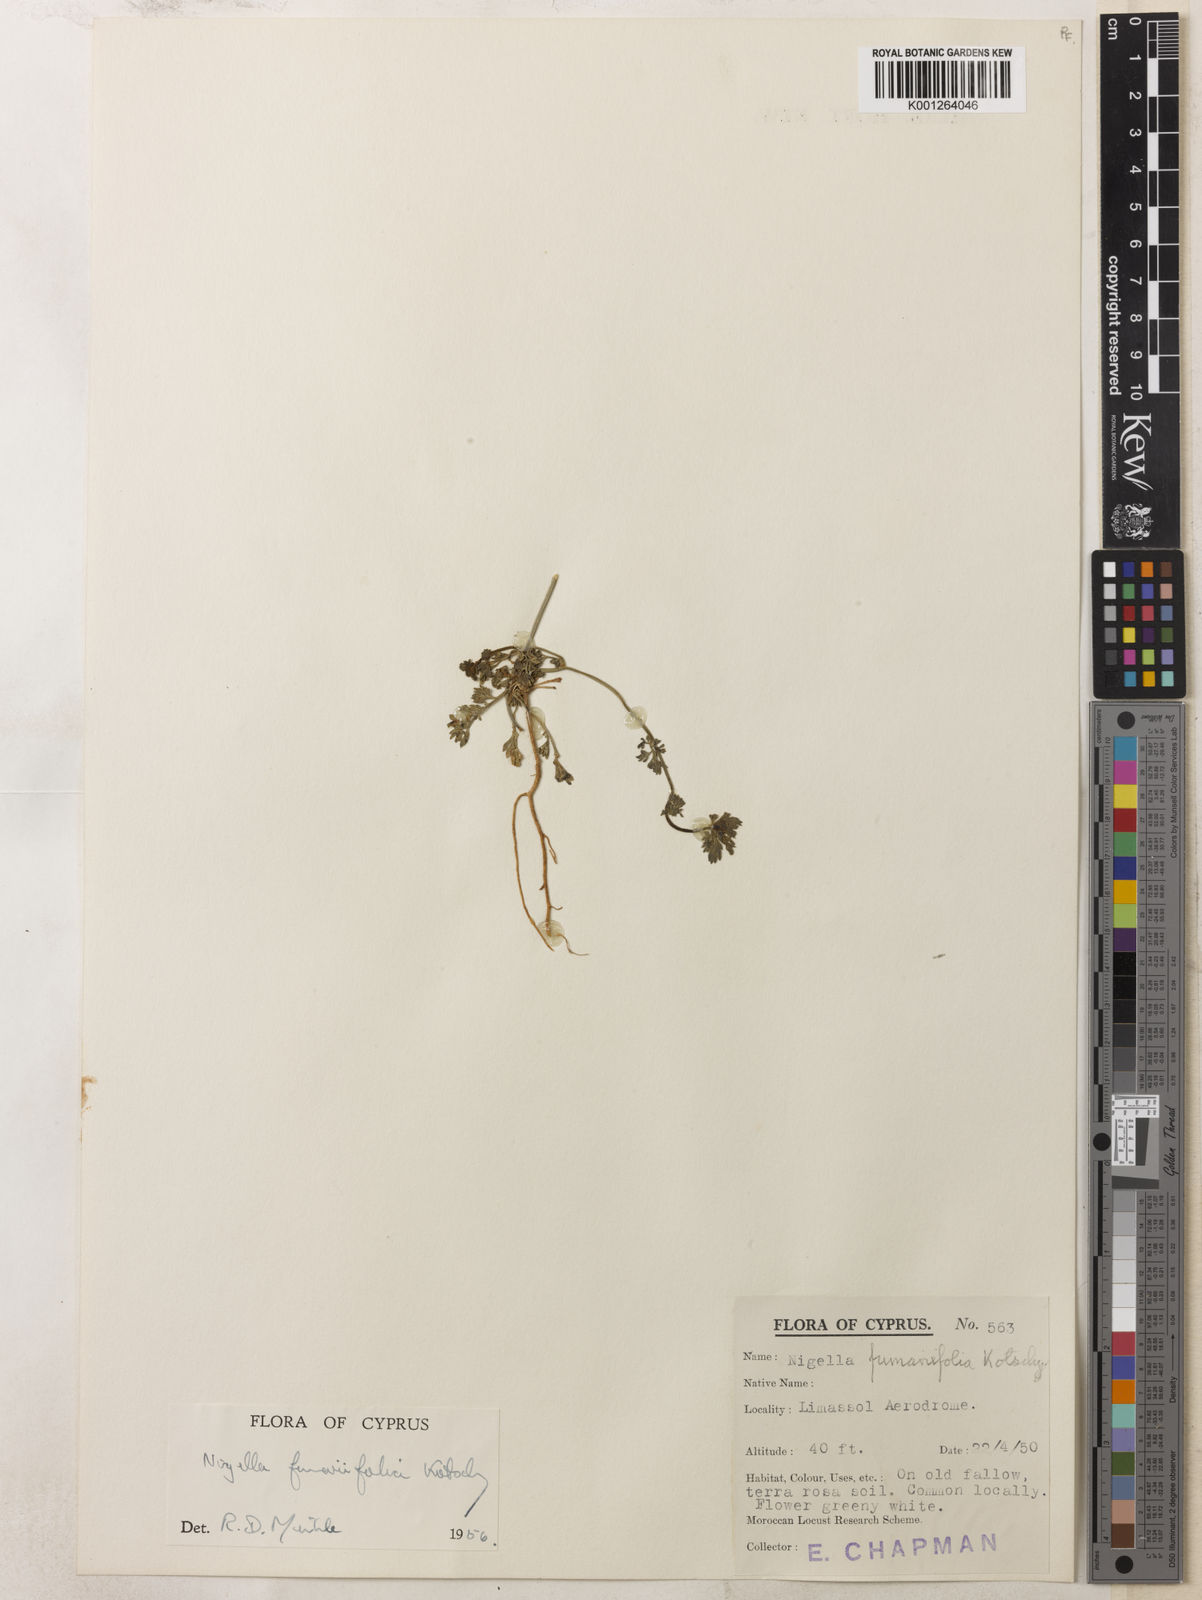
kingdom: Plantae
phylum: Tracheophyta
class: Magnoliopsida
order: Ranunculales
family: Ranunculaceae
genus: Nigella
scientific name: Nigella
